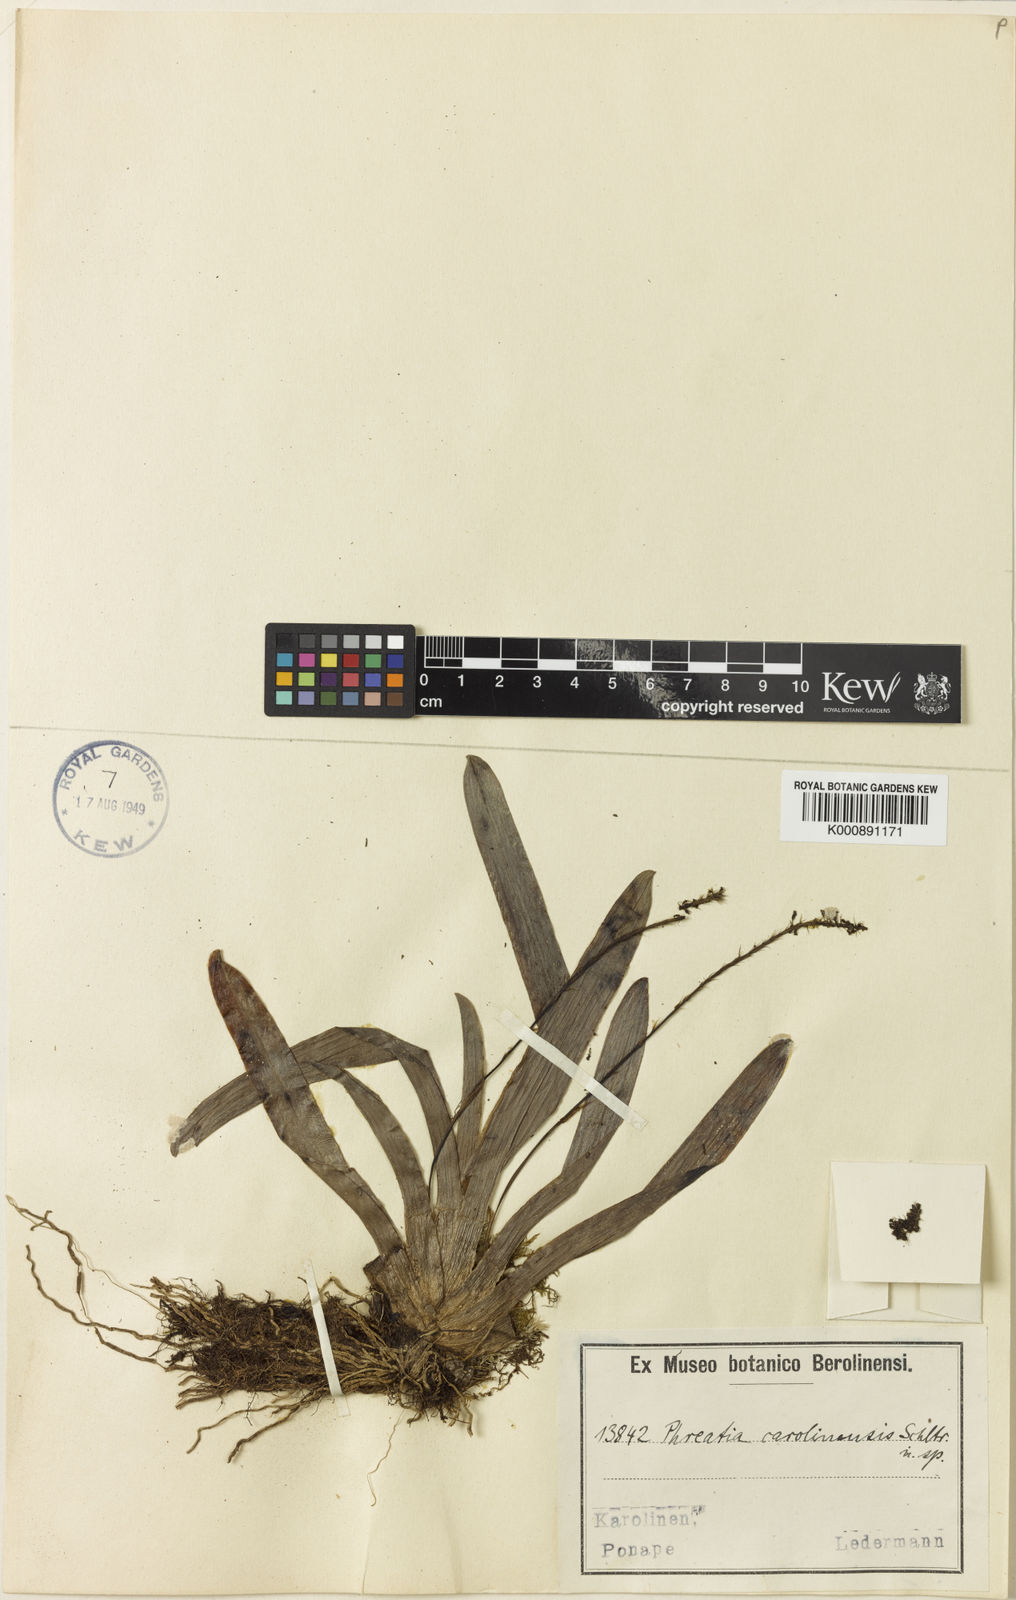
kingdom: Plantae
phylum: Tracheophyta
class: Liliopsida
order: Asparagales
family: Orchidaceae
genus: Phreatia
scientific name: Phreatia saccifera
